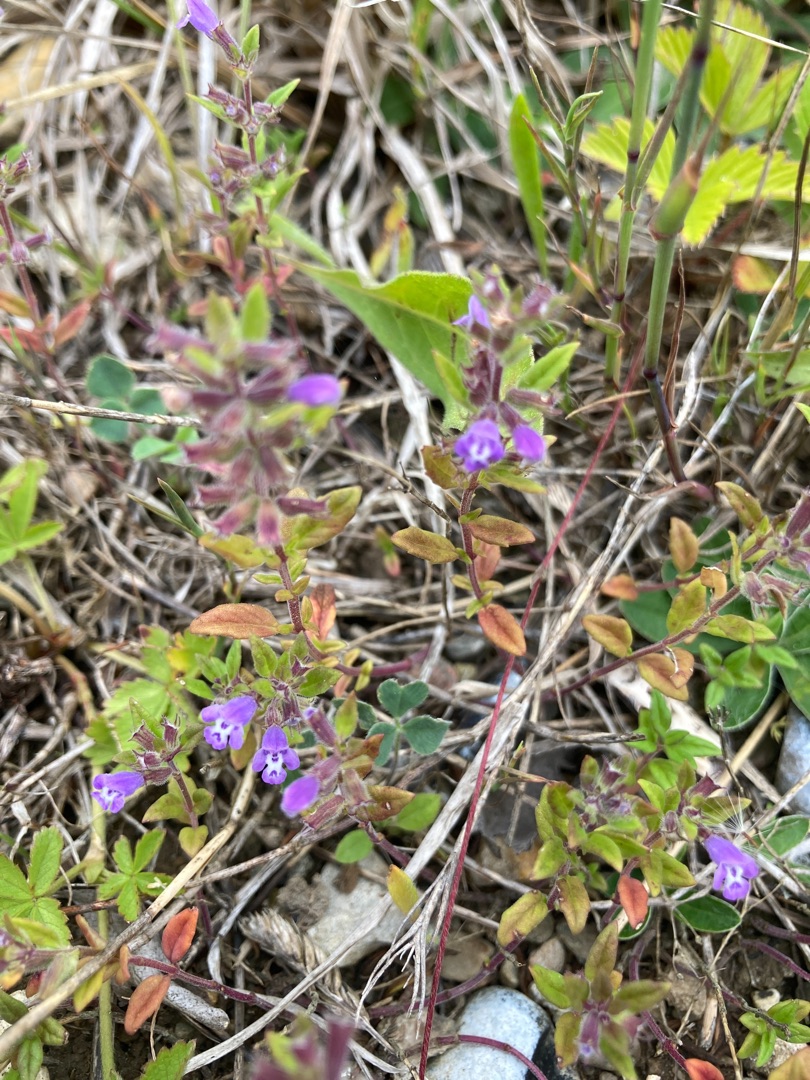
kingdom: Plantae
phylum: Tracheophyta
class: Magnoliopsida
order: Lamiales
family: Lamiaceae
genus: Clinopodium
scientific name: Clinopodium acinos
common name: Voldtimian
